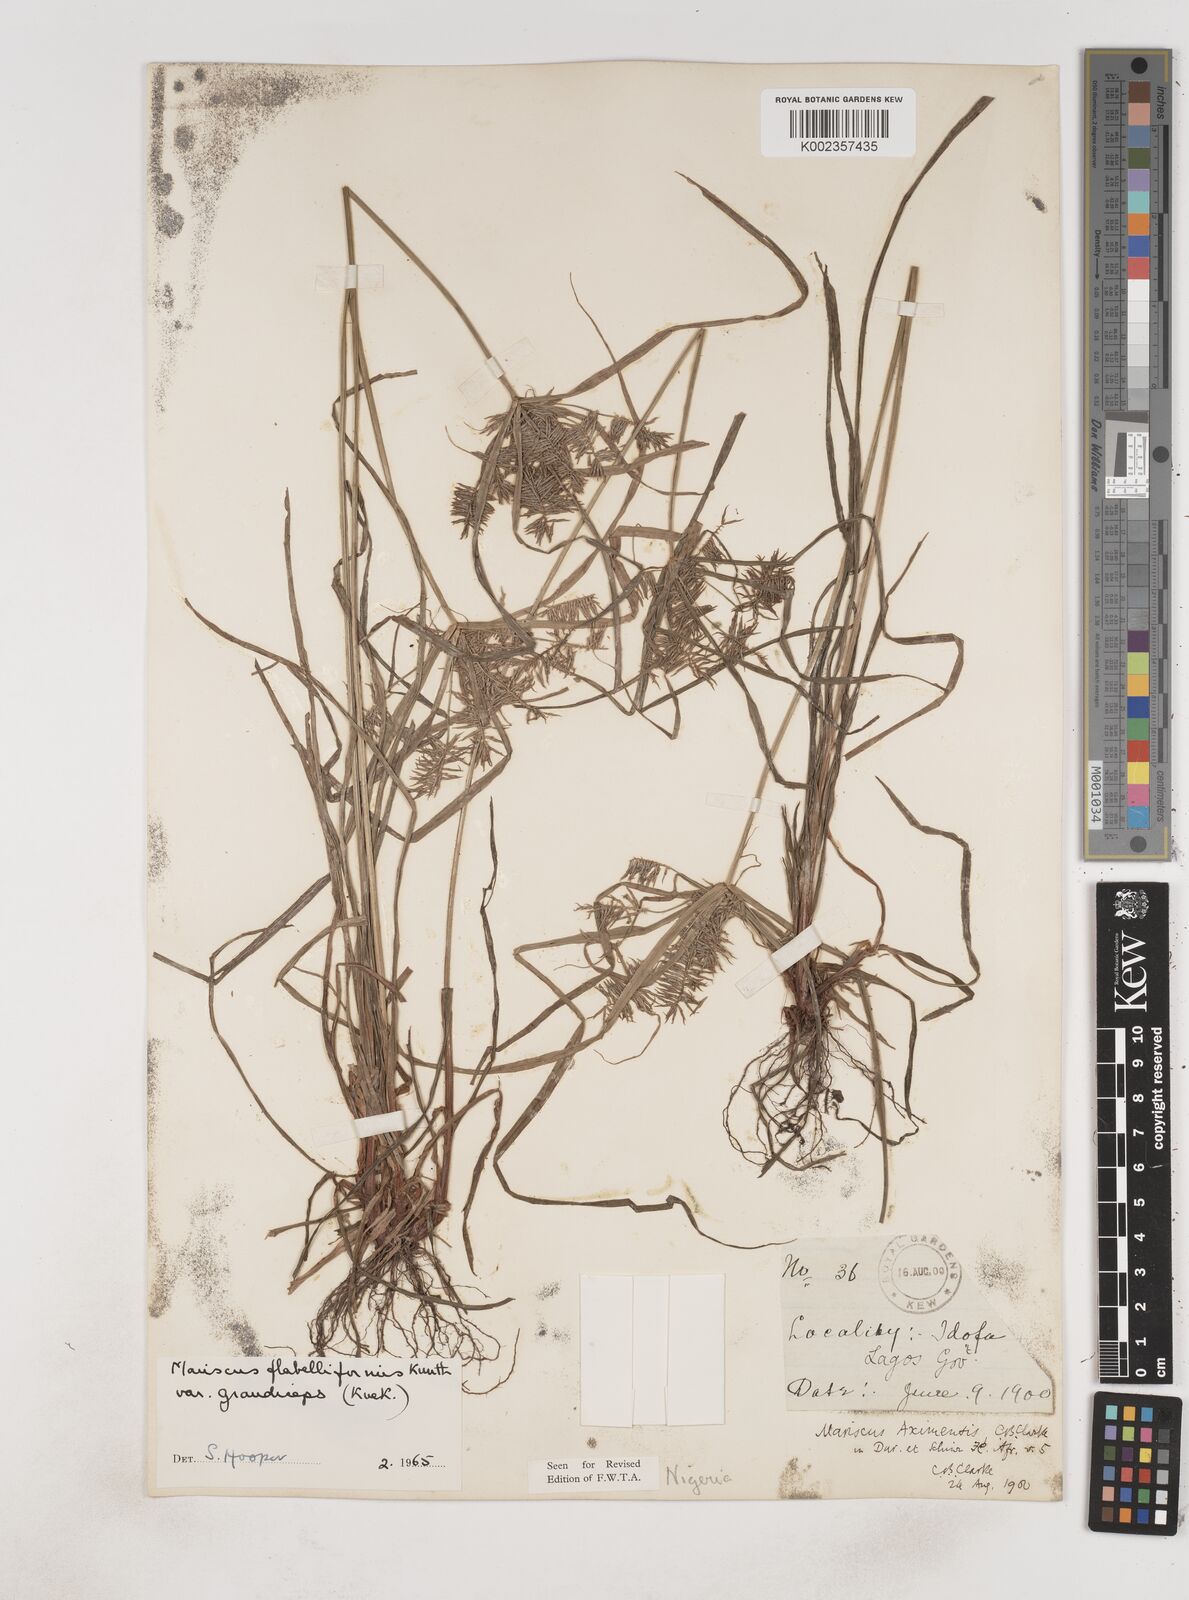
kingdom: Plantae
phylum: Tracheophyta
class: Liliopsida
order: Poales
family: Cyperaceae
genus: Cyperus
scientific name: Cyperus tenuis
